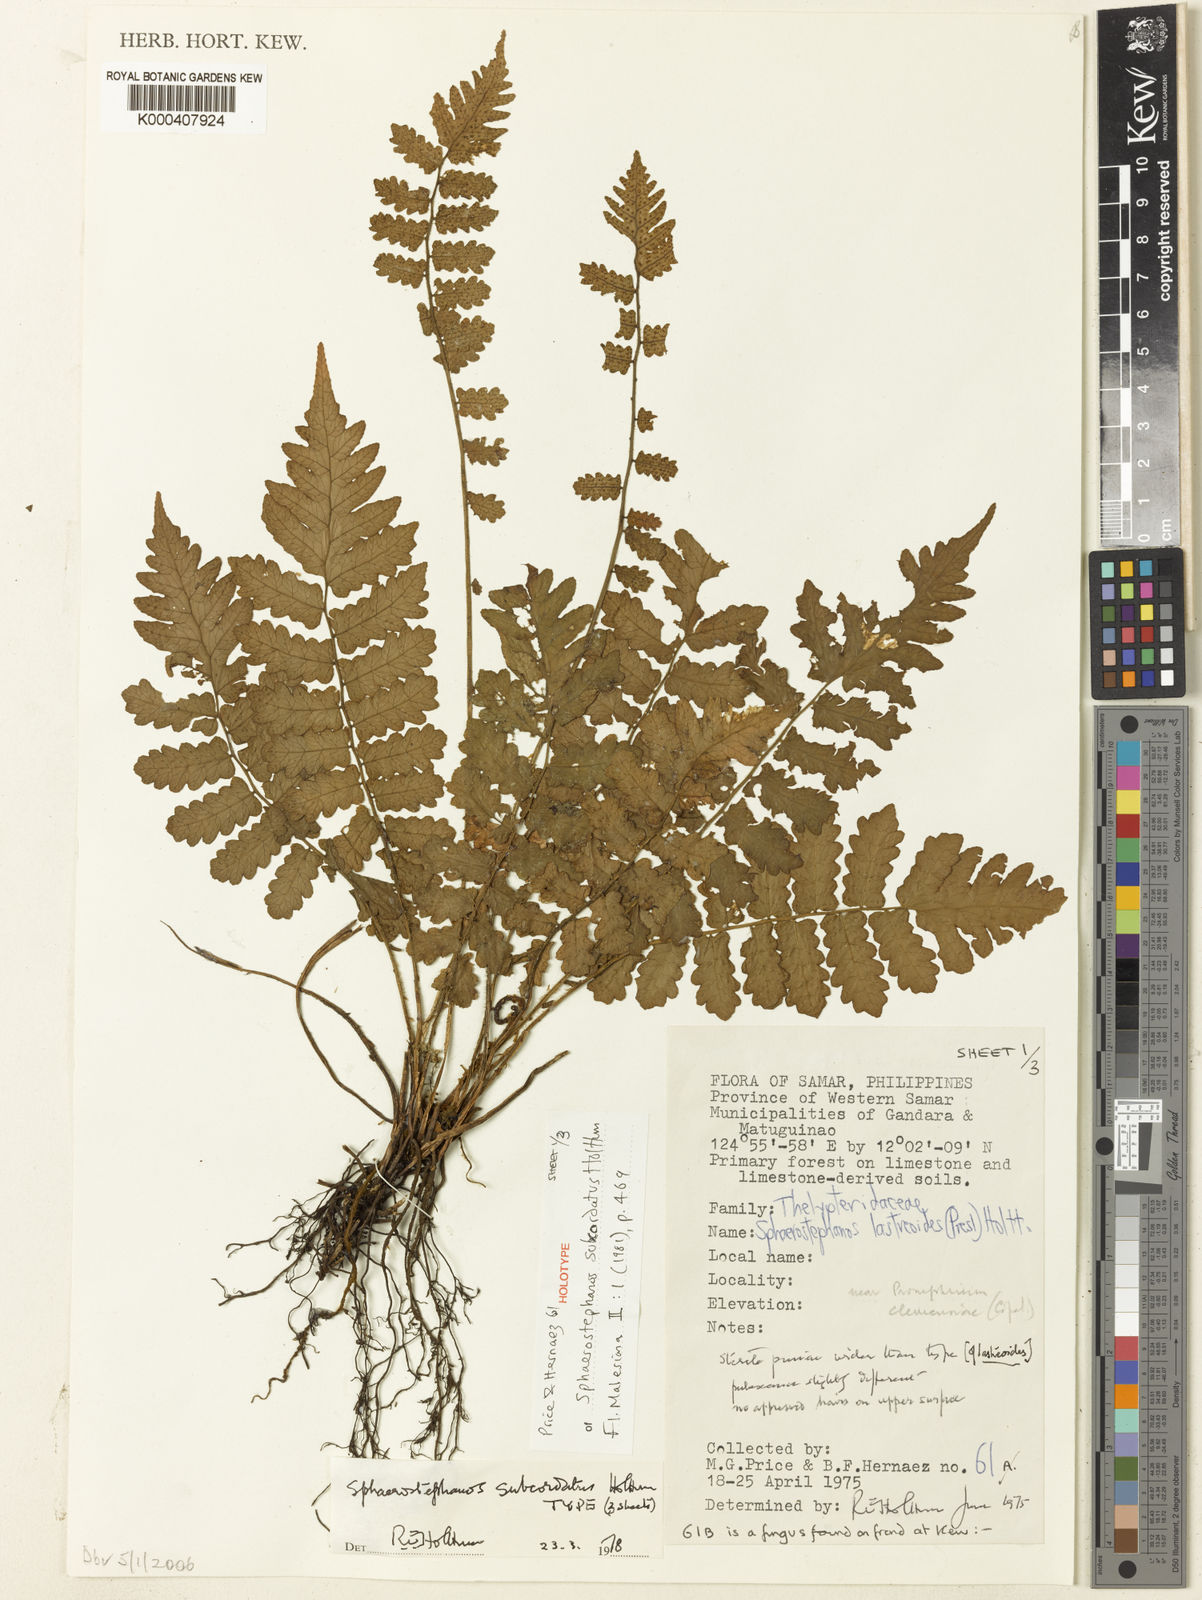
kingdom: Plantae
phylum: Tracheophyta
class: Polypodiopsida
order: Polypodiales
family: Thelypteridaceae
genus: Sphaerostephanos
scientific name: Sphaerostephanos subcordatus
